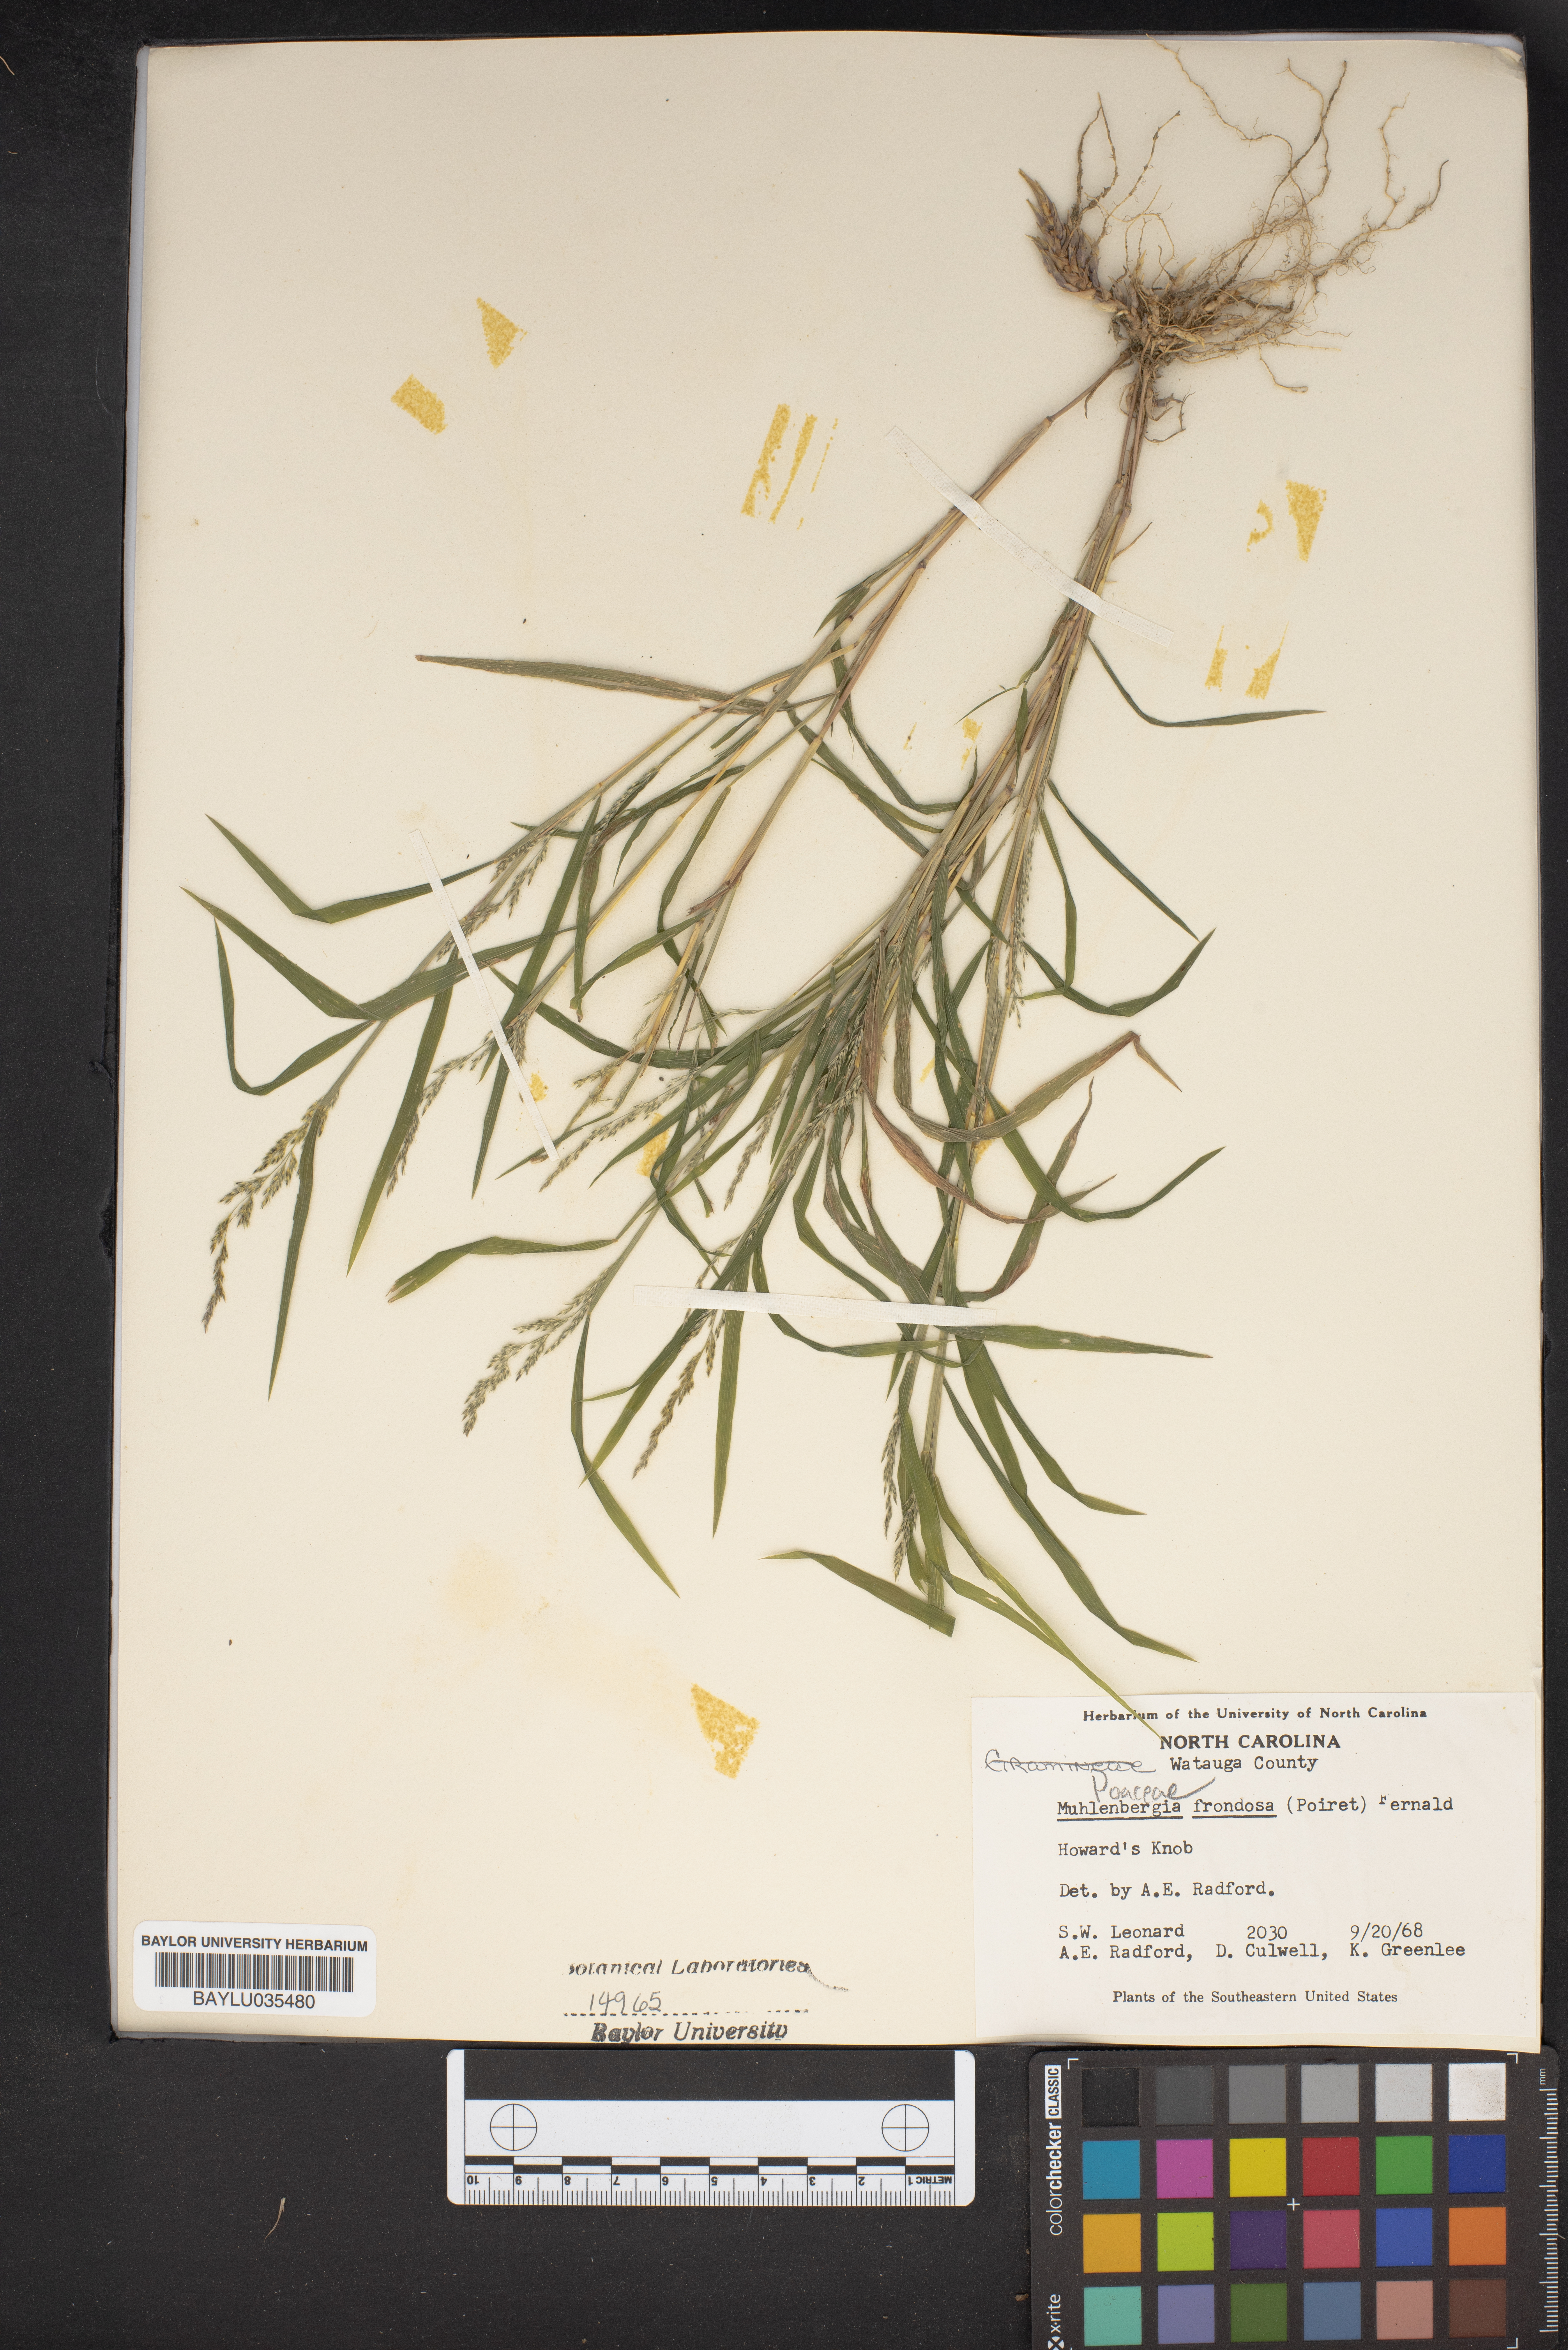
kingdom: Plantae
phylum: Tracheophyta
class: Liliopsida
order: Poales
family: Poaceae
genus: Muhlenbergia
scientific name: Muhlenbergia frondosa
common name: Common satingrass
